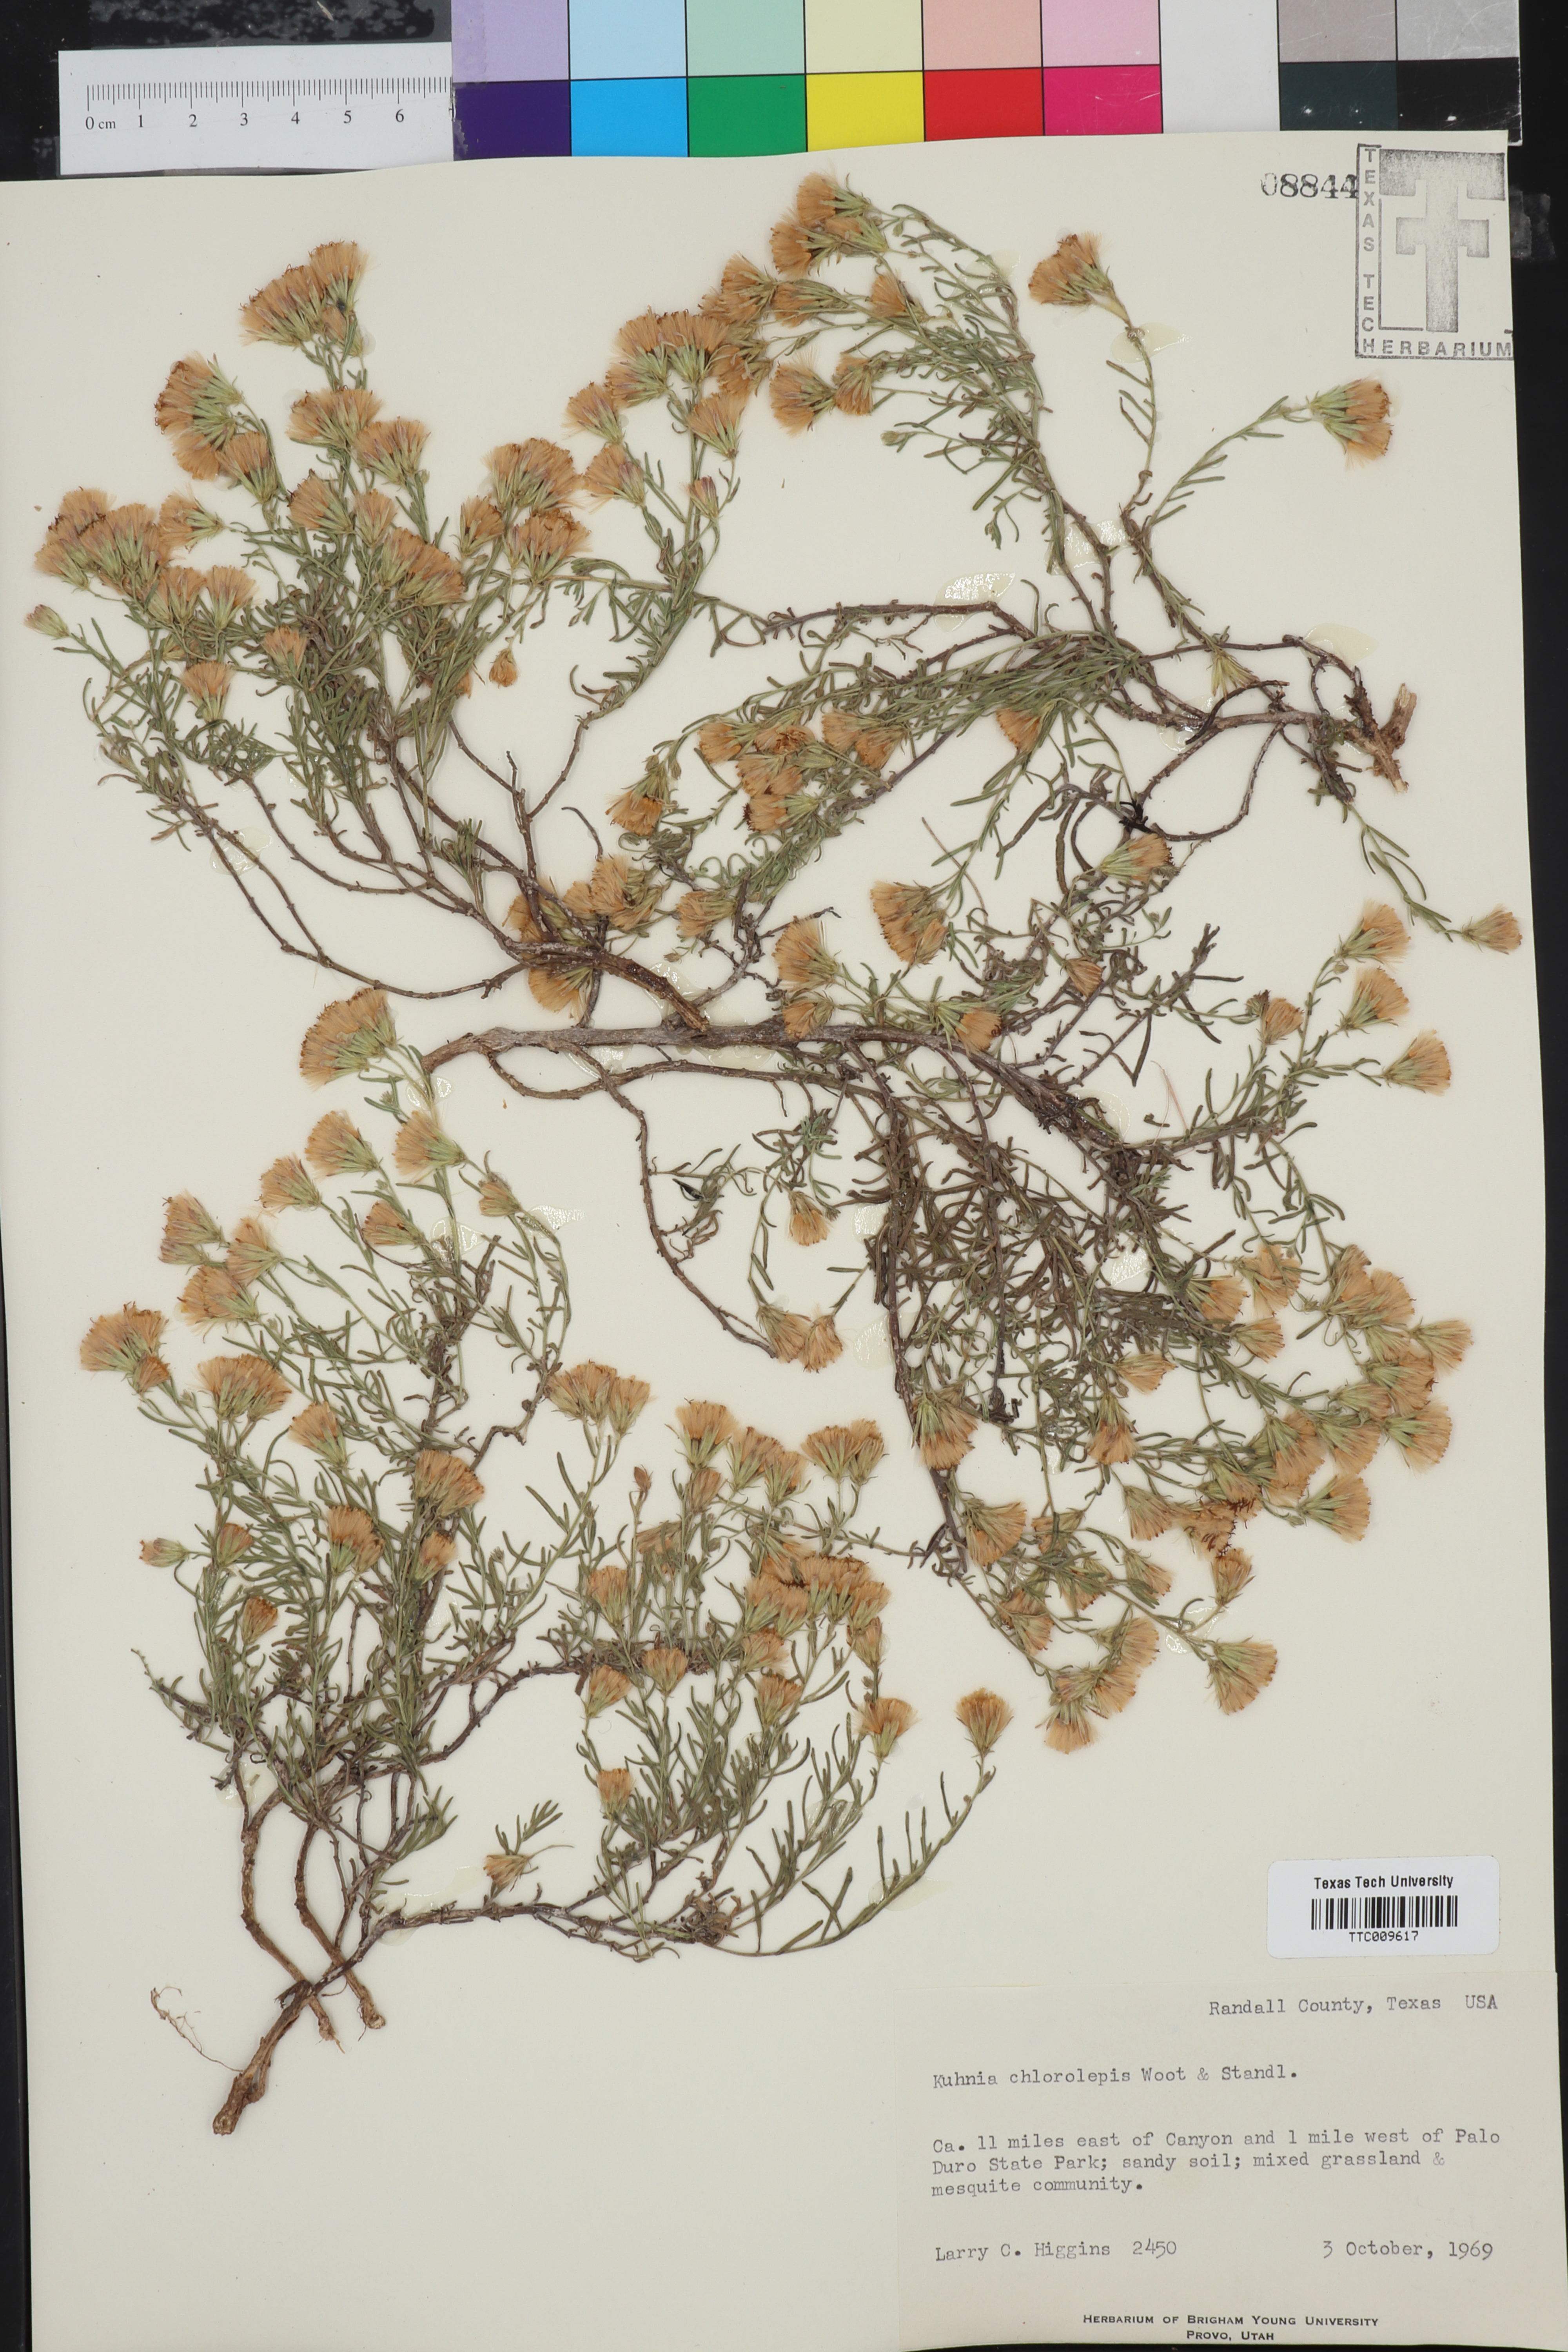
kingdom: Plantae
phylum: Tracheophyta
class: Magnoliopsida
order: Asterales
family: Asteraceae
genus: Brickellia
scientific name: Brickellia leptophylla
